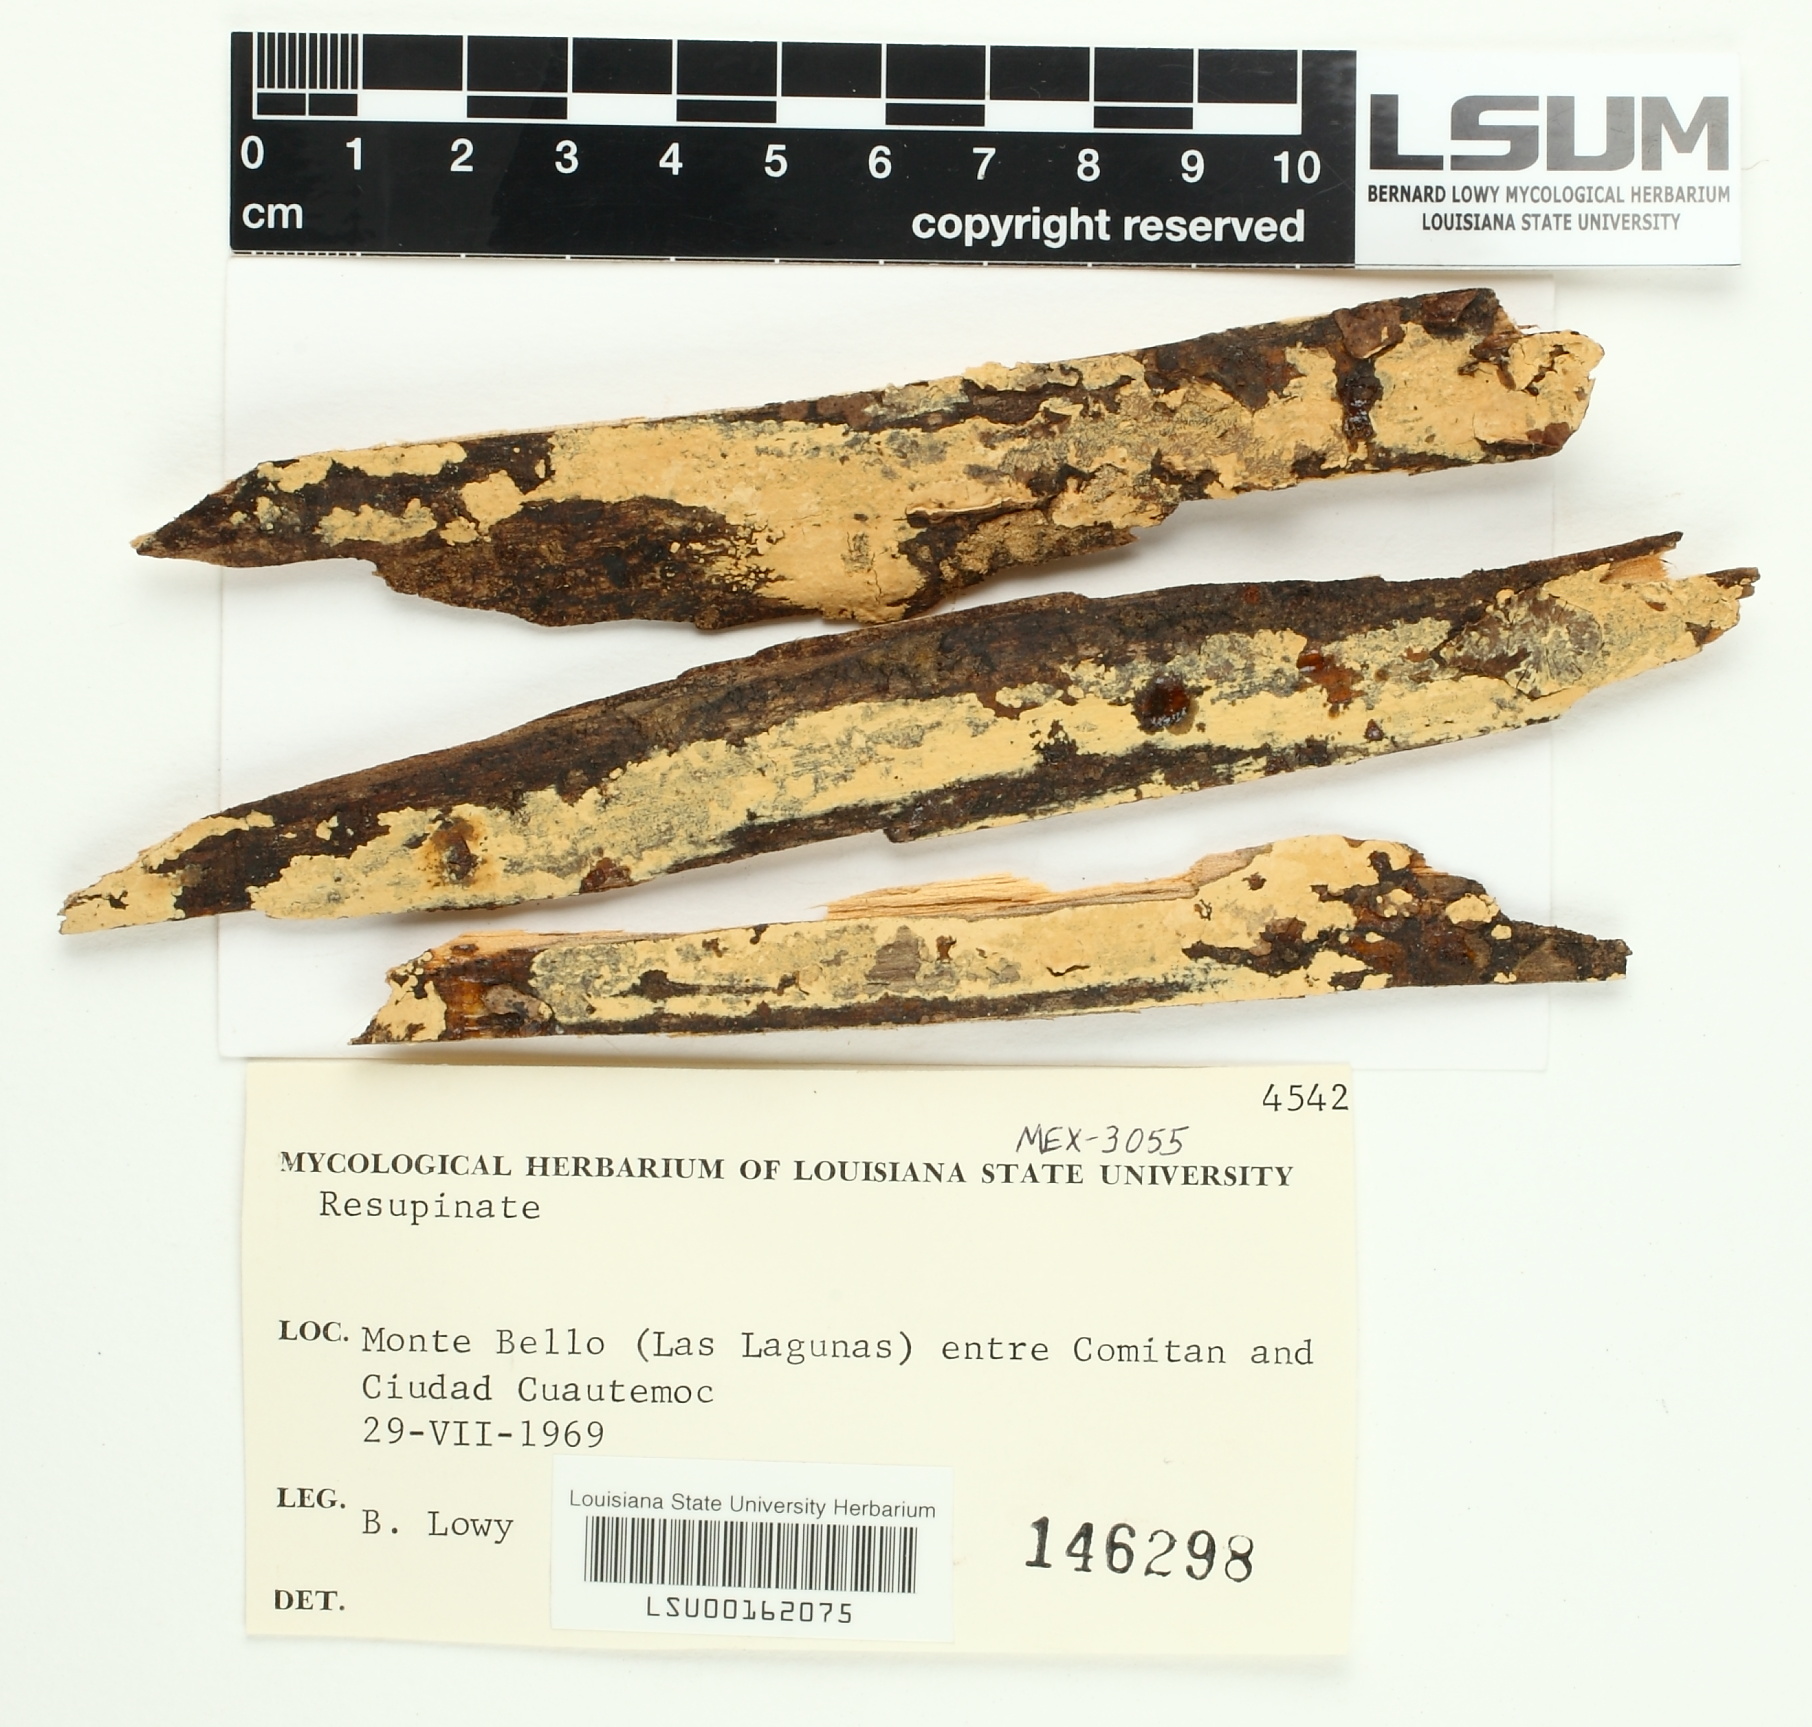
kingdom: Fungi
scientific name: Fungi
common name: Fungi
